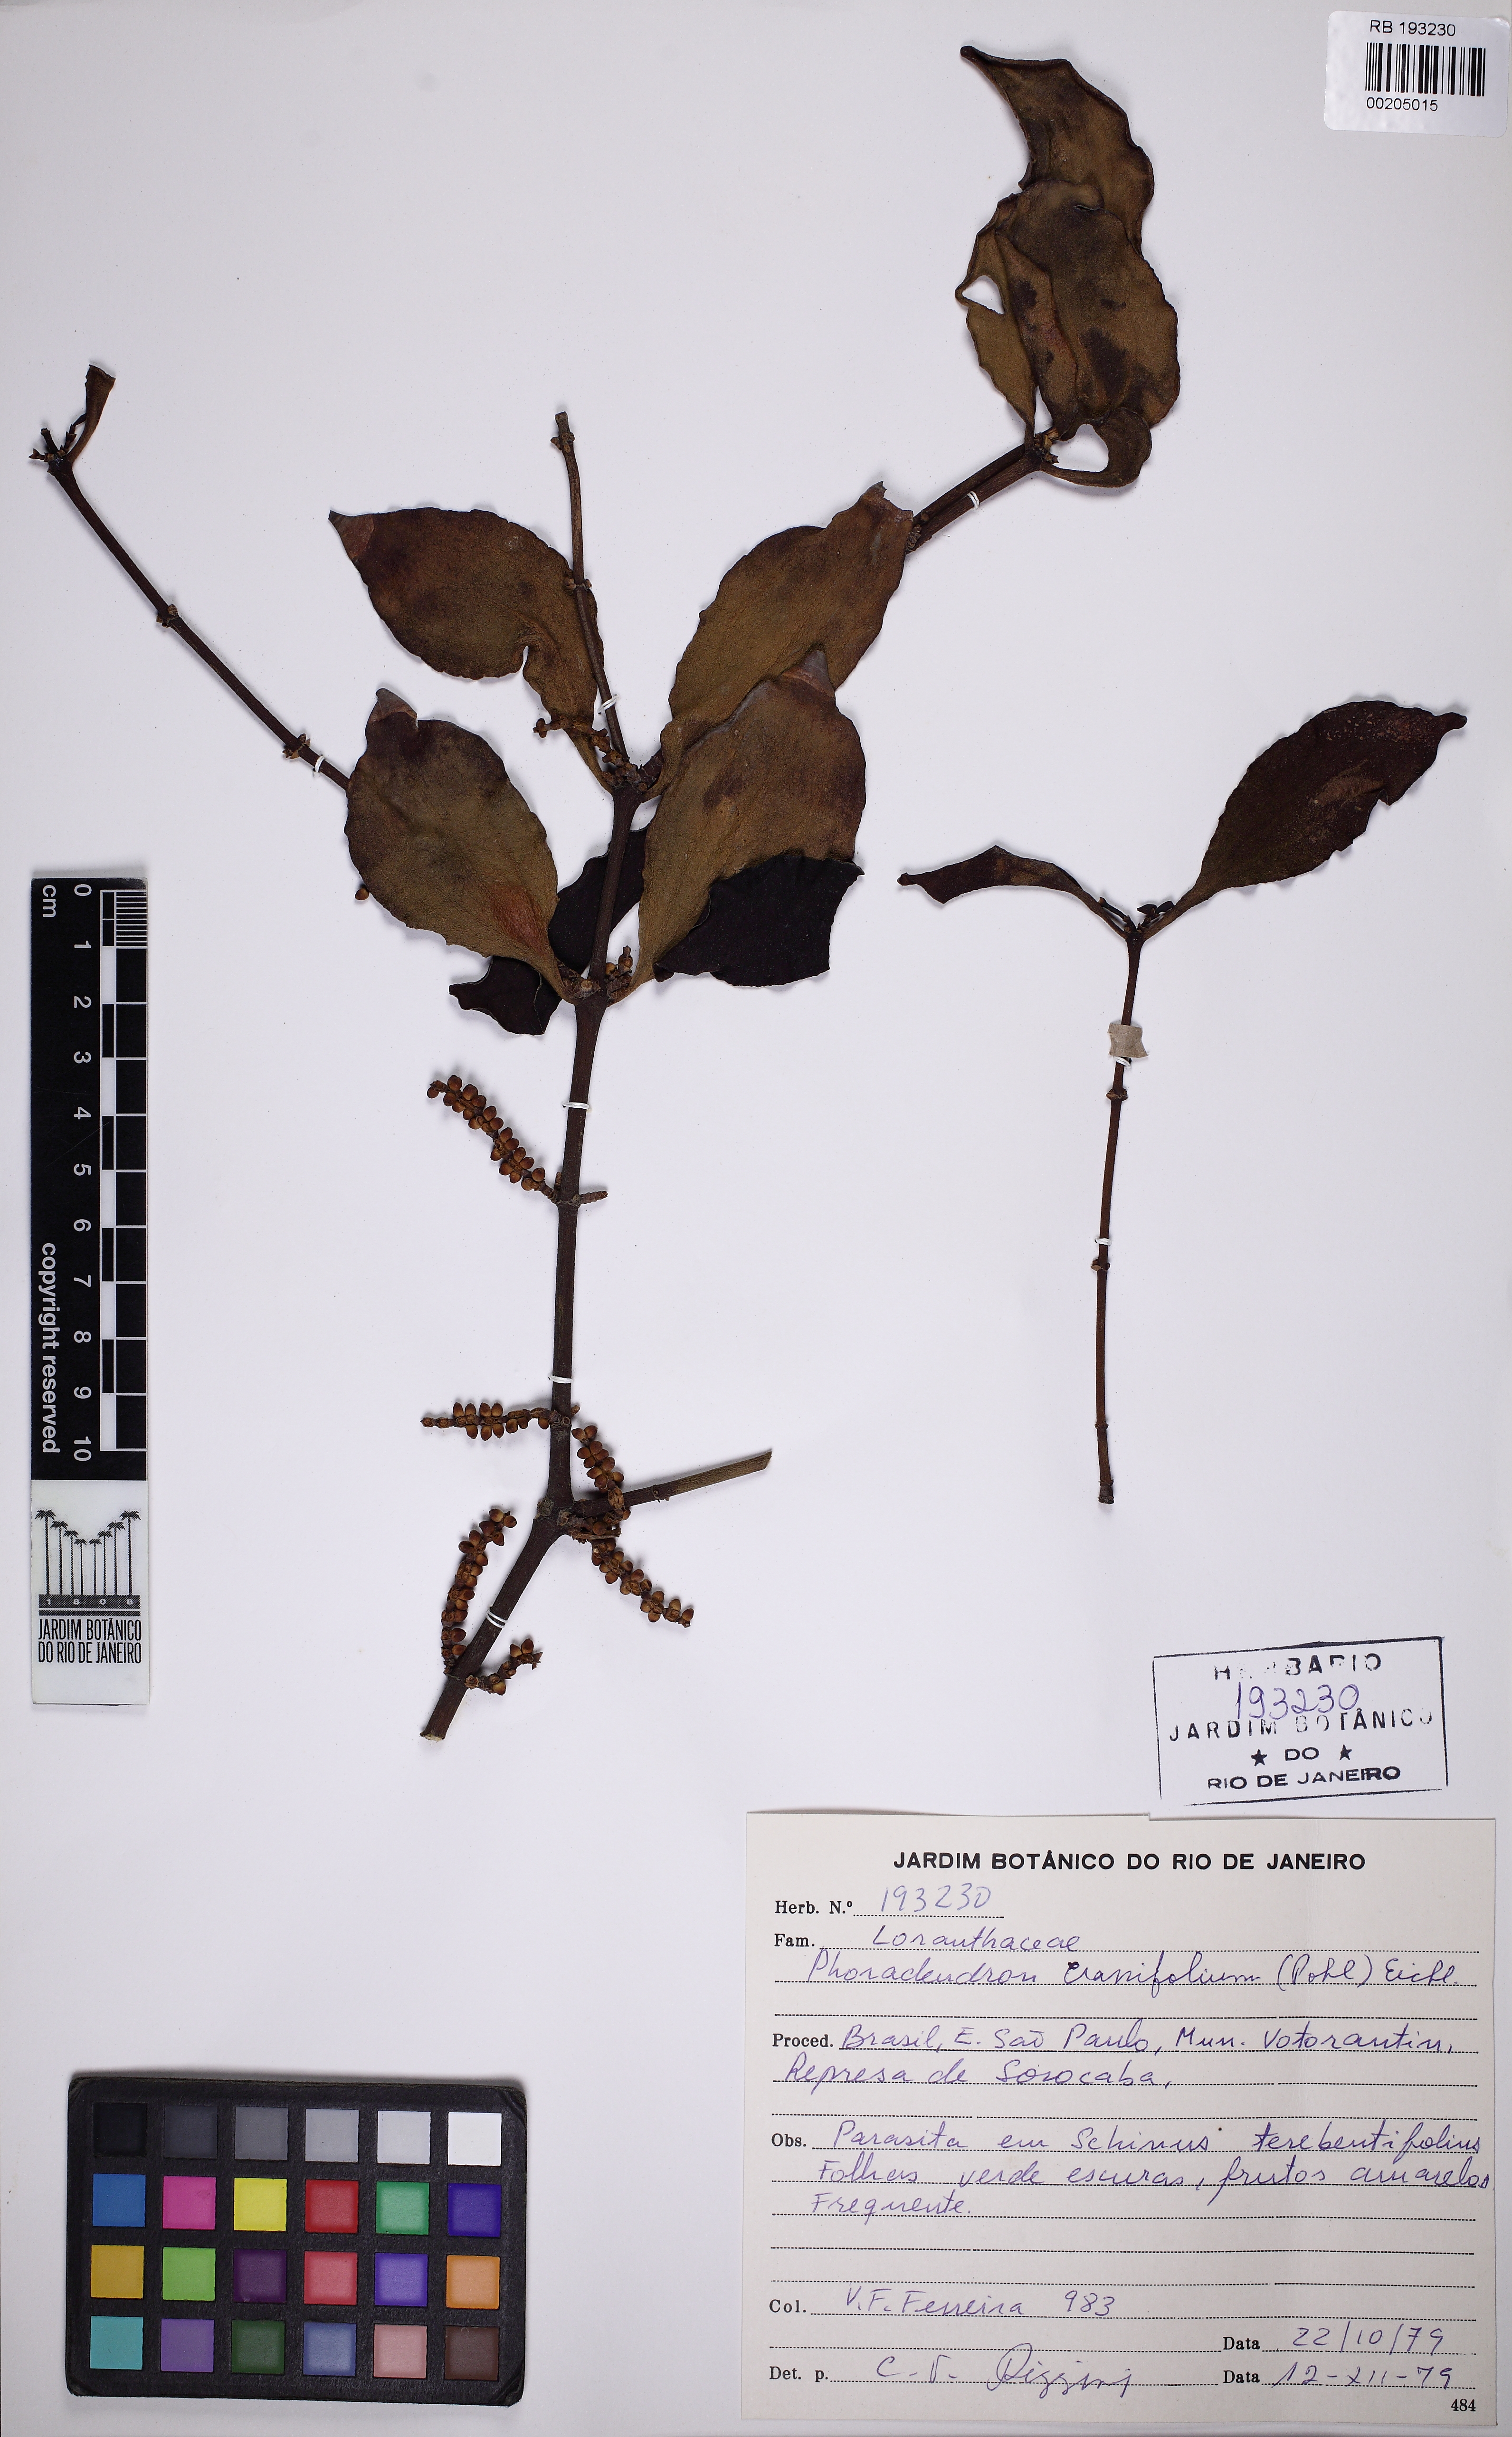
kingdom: Plantae
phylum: Tracheophyta
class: Magnoliopsida
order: Santalales
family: Viscaceae
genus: Phoradendron
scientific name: Phoradendron crassifolium
